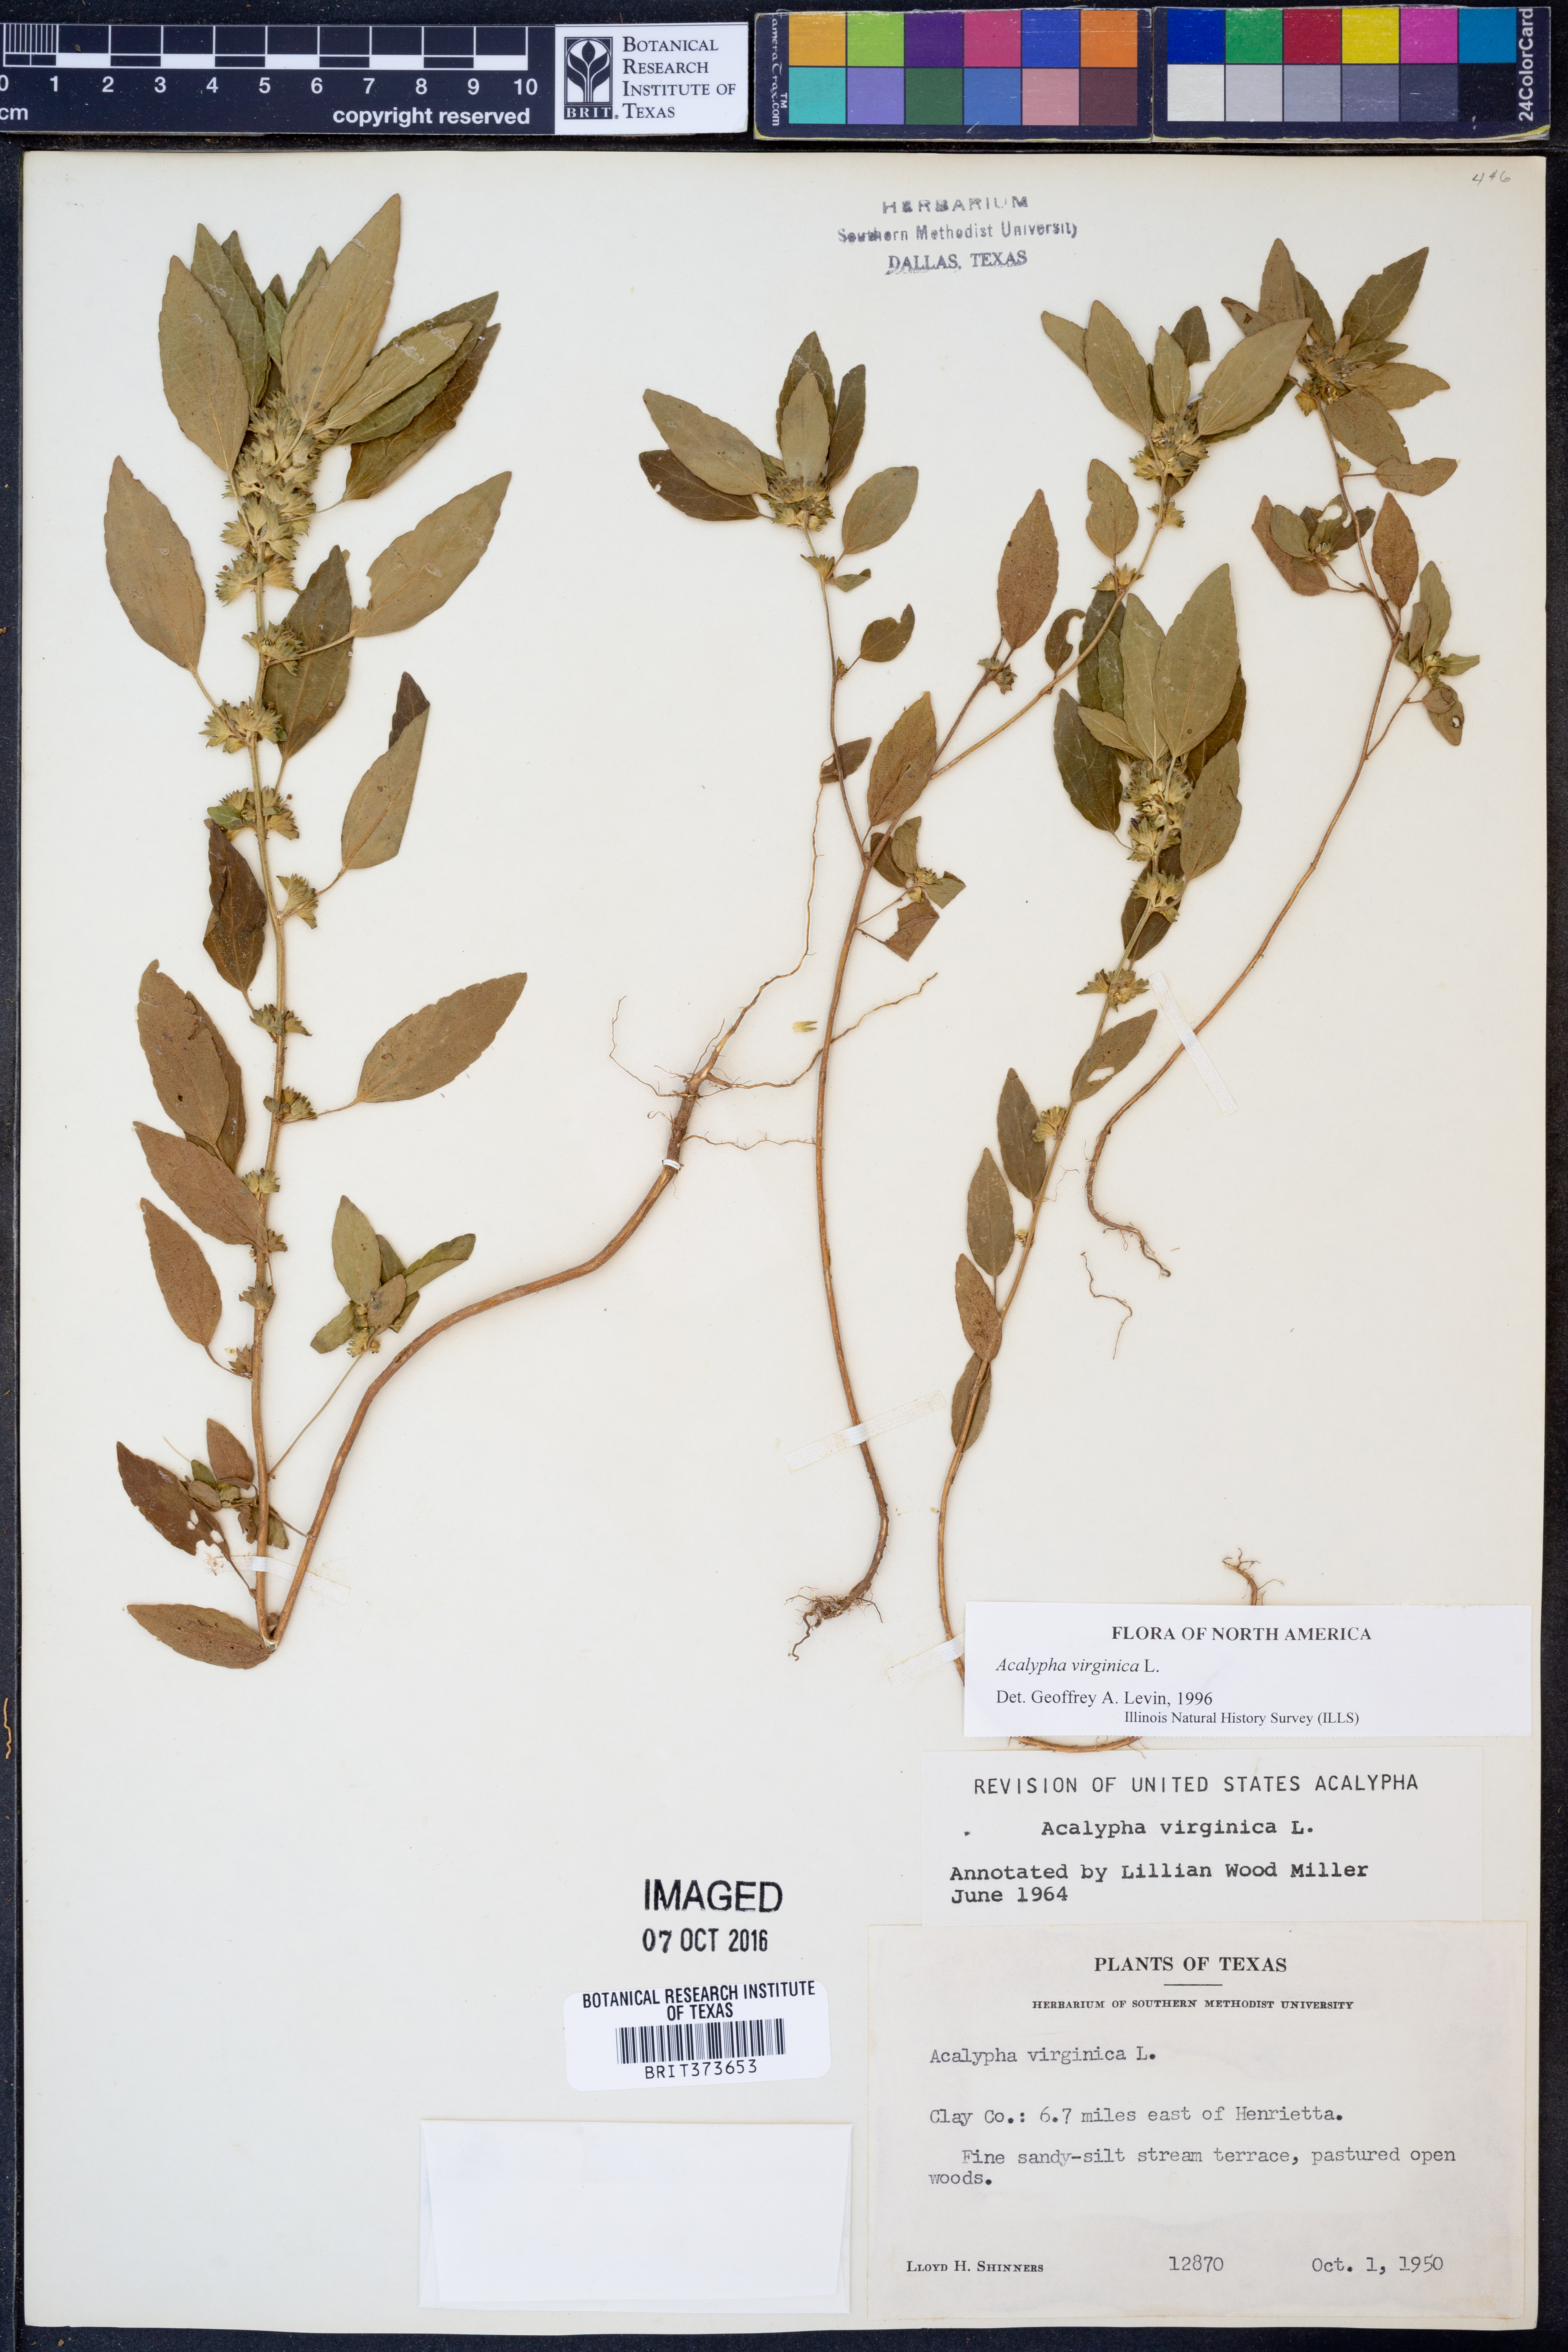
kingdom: Plantae
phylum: Tracheophyta
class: Magnoliopsida
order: Malpighiales
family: Euphorbiaceae
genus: Acalypha
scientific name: Acalypha virginica
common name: Virginia copperleaf
